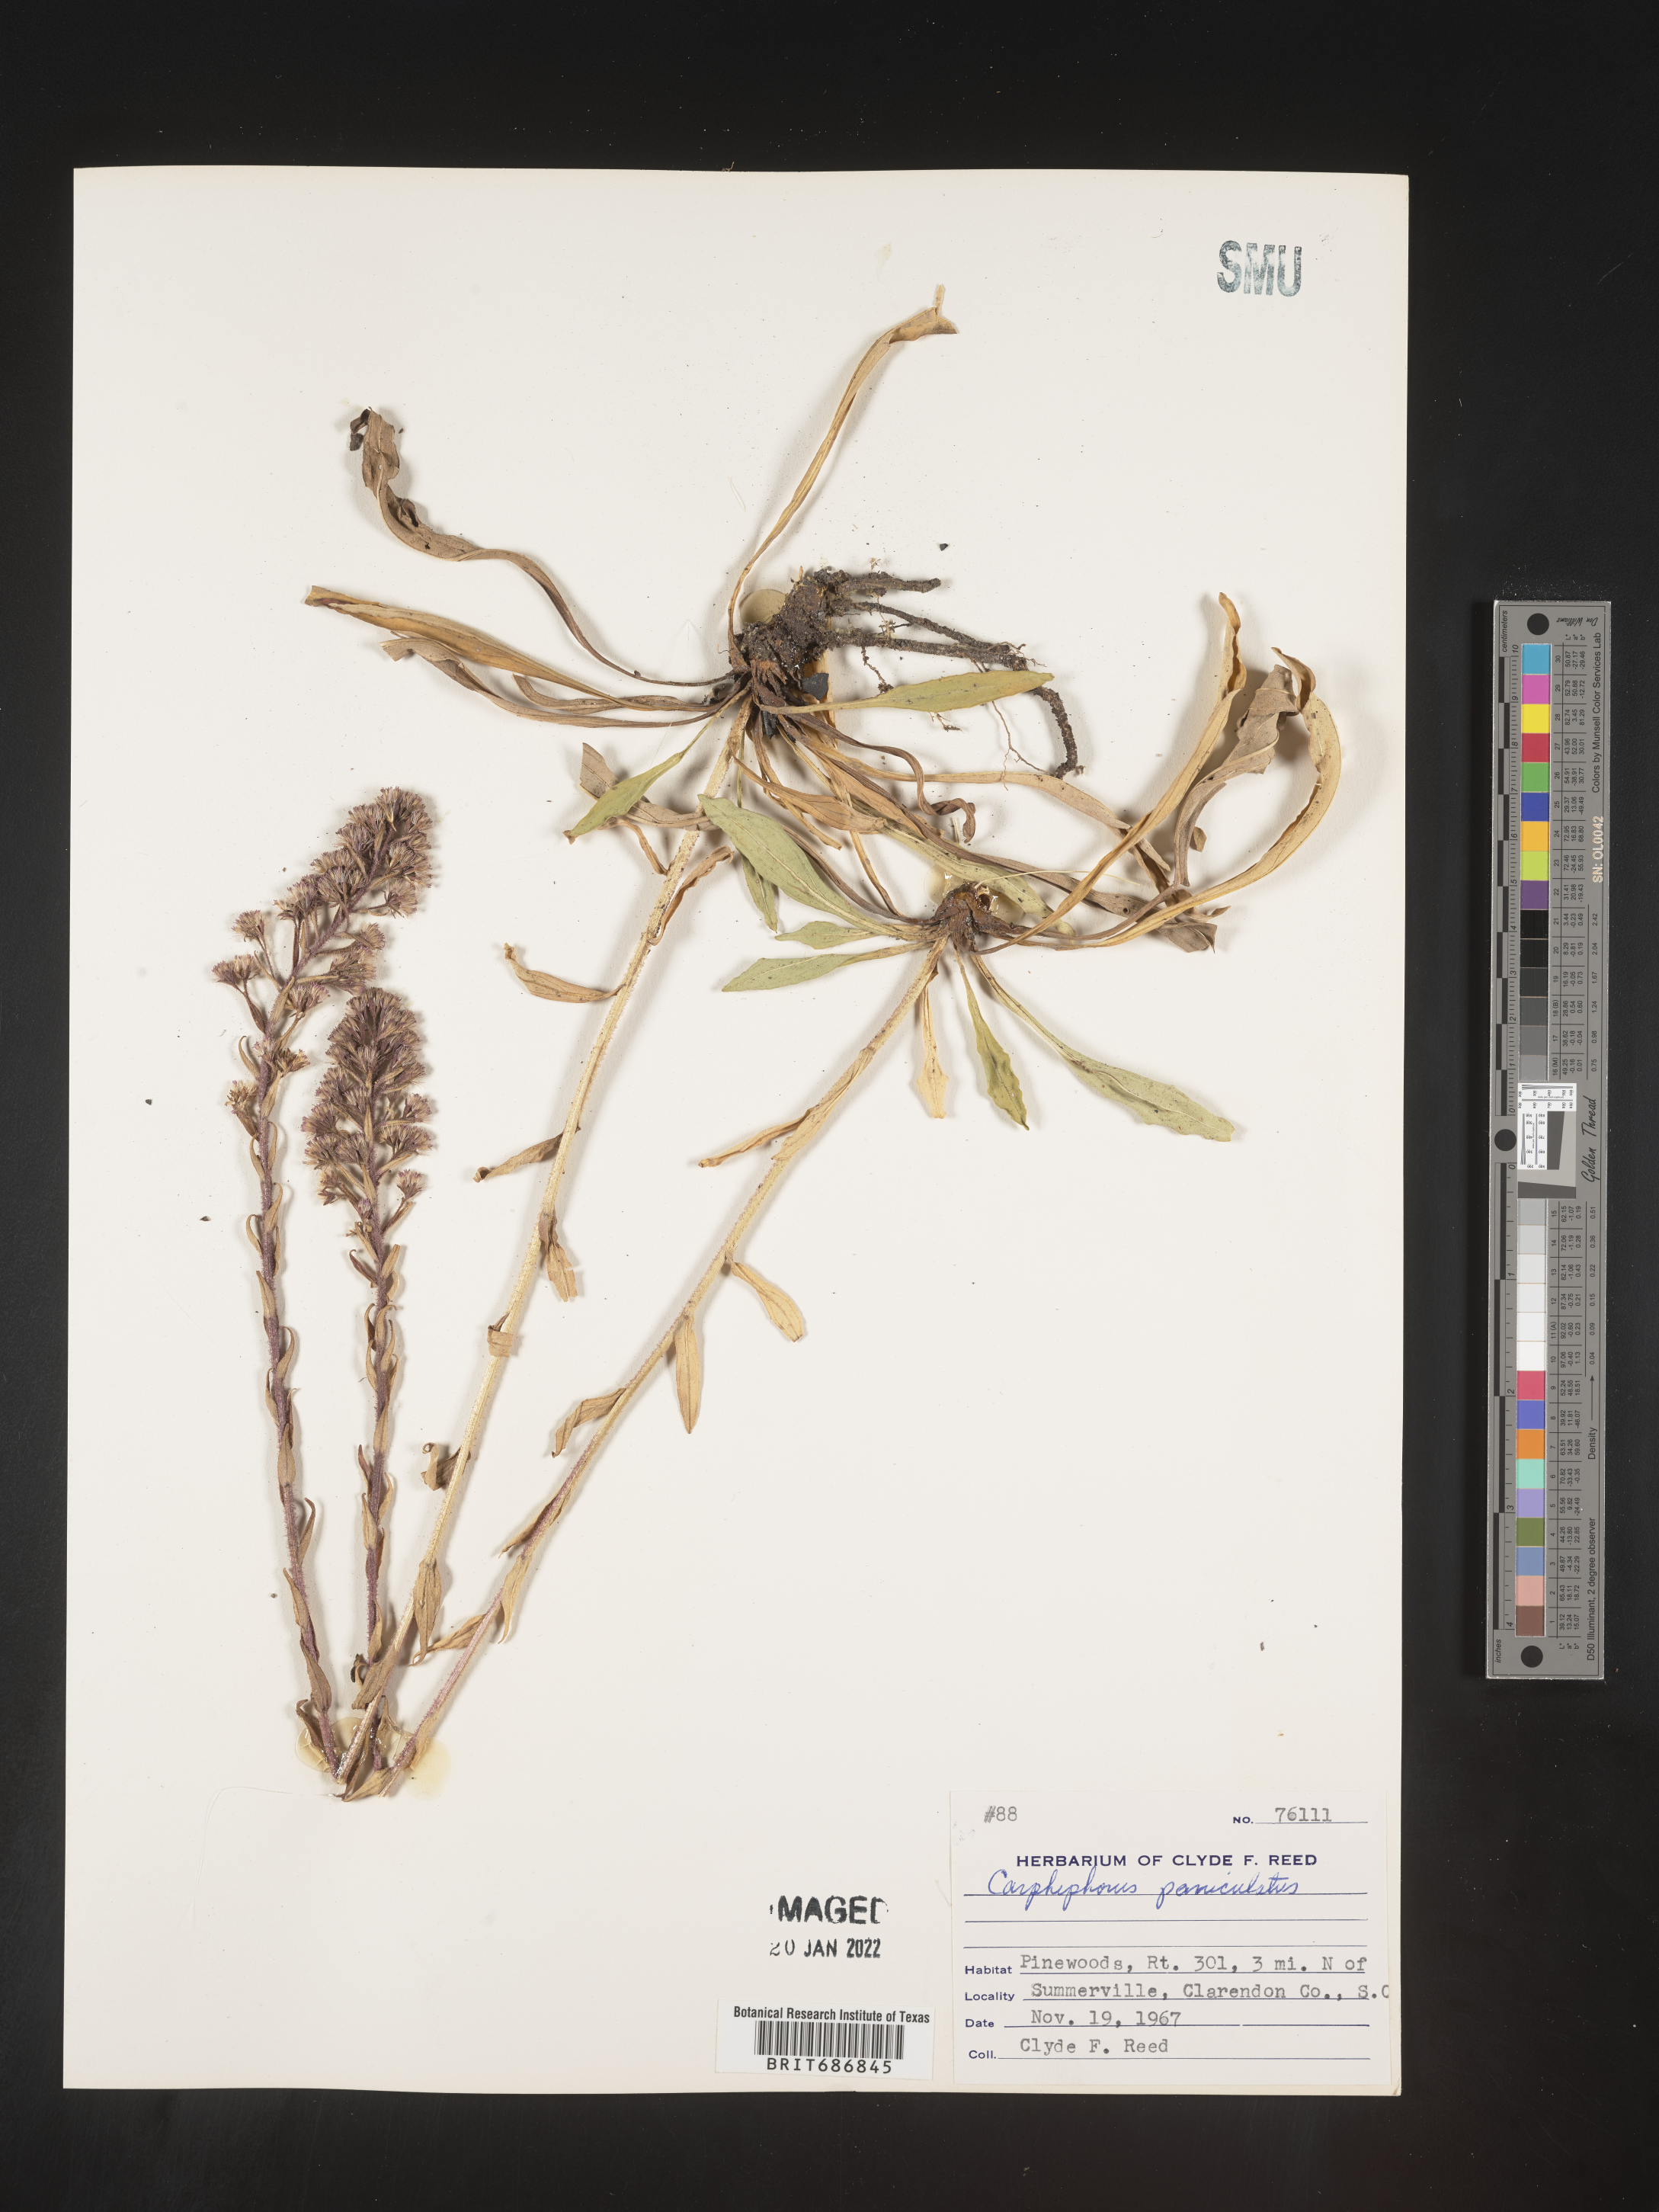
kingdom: Plantae
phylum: Tracheophyta
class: Magnoliopsida
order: Asterales
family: Asteraceae
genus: Carphephorus
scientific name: Carphephorus paniculatus
